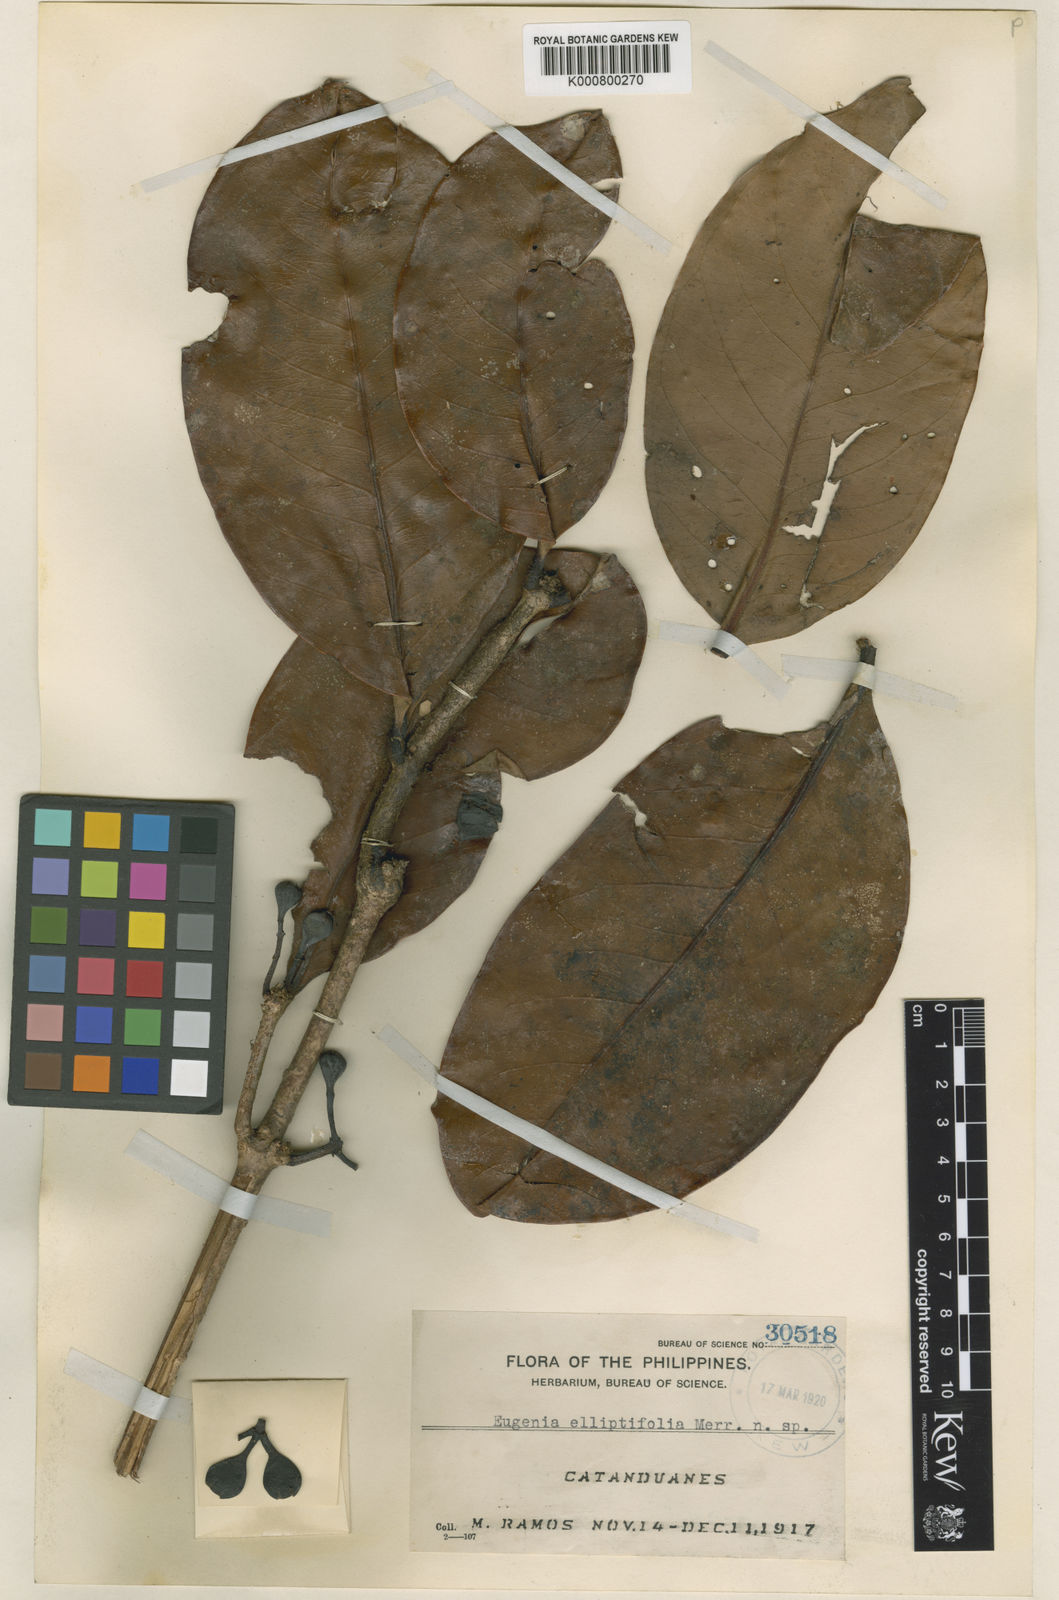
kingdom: Plantae
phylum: Tracheophyta
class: Magnoliopsida
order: Myrtales
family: Myrtaceae
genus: Syzygium
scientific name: Syzygium elliptifolium
